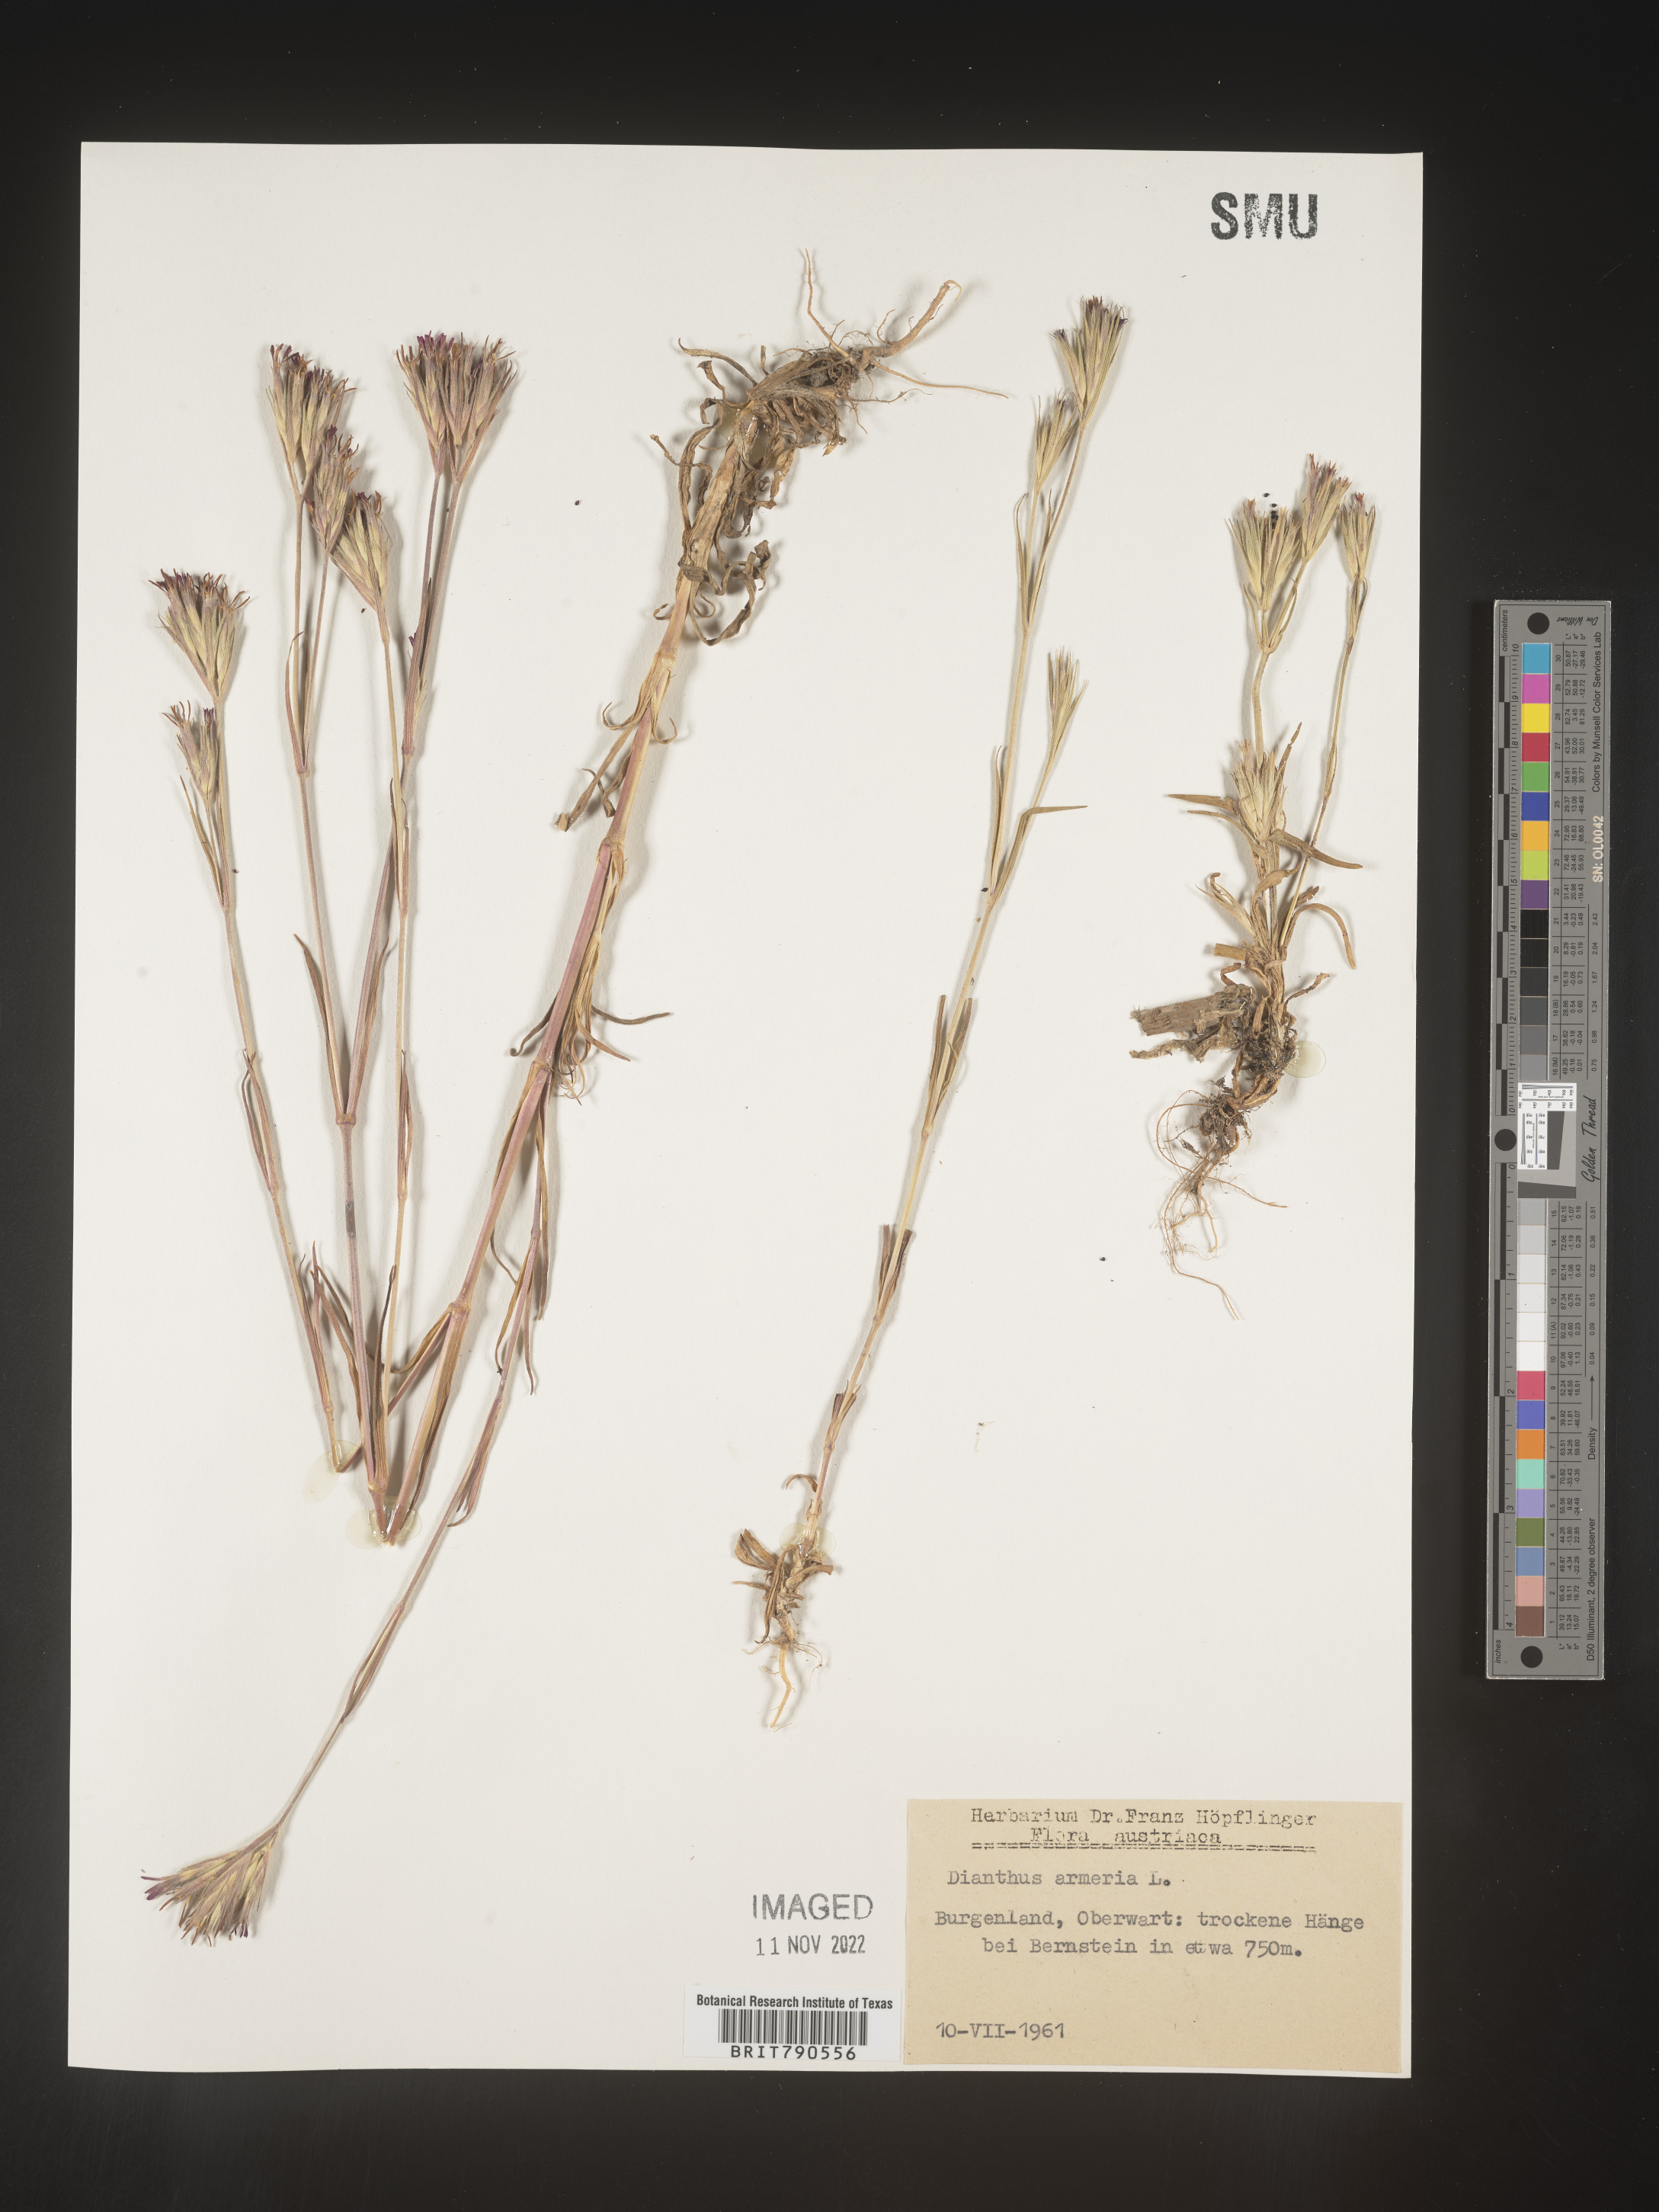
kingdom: Plantae
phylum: Tracheophyta
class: Magnoliopsida
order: Caryophyllales
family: Caryophyllaceae
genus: Dianthus
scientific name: Dianthus
